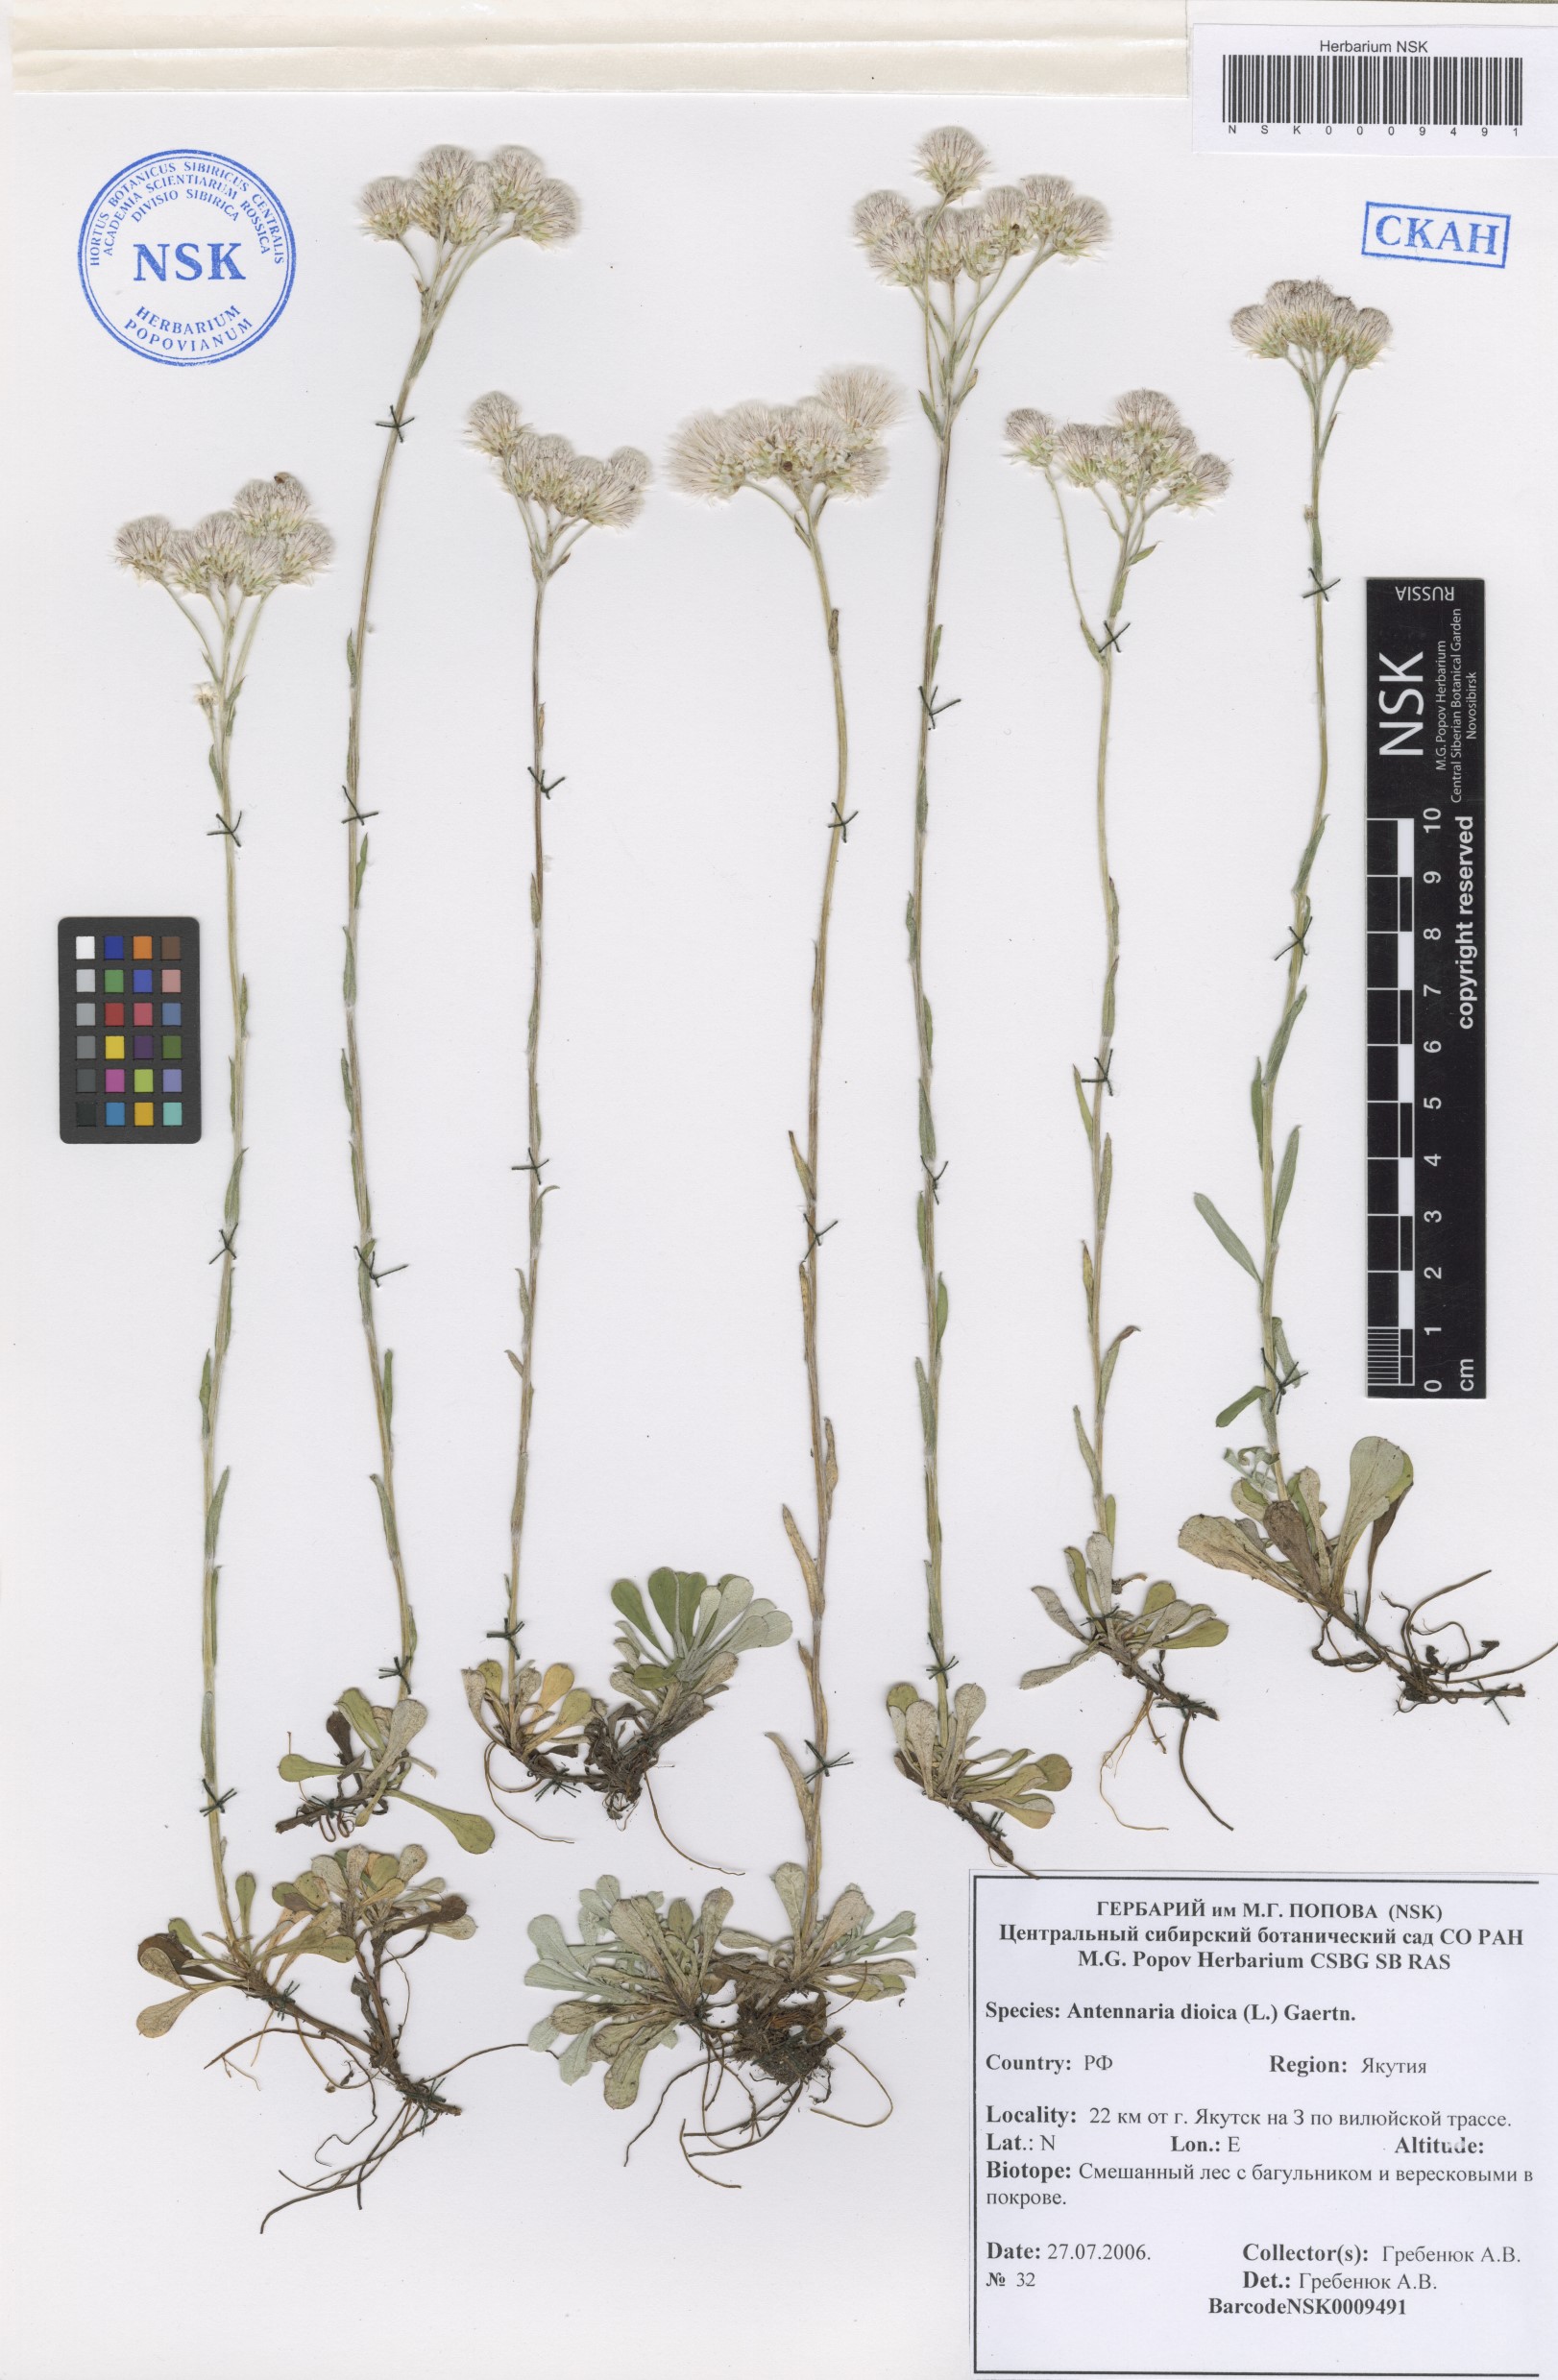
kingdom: Plantae
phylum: Tracheophyta
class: Magnoliopsida
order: Asterales
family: Asteraceae
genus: Antennaria
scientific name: Antennaria dioica
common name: Mountain everlasting
